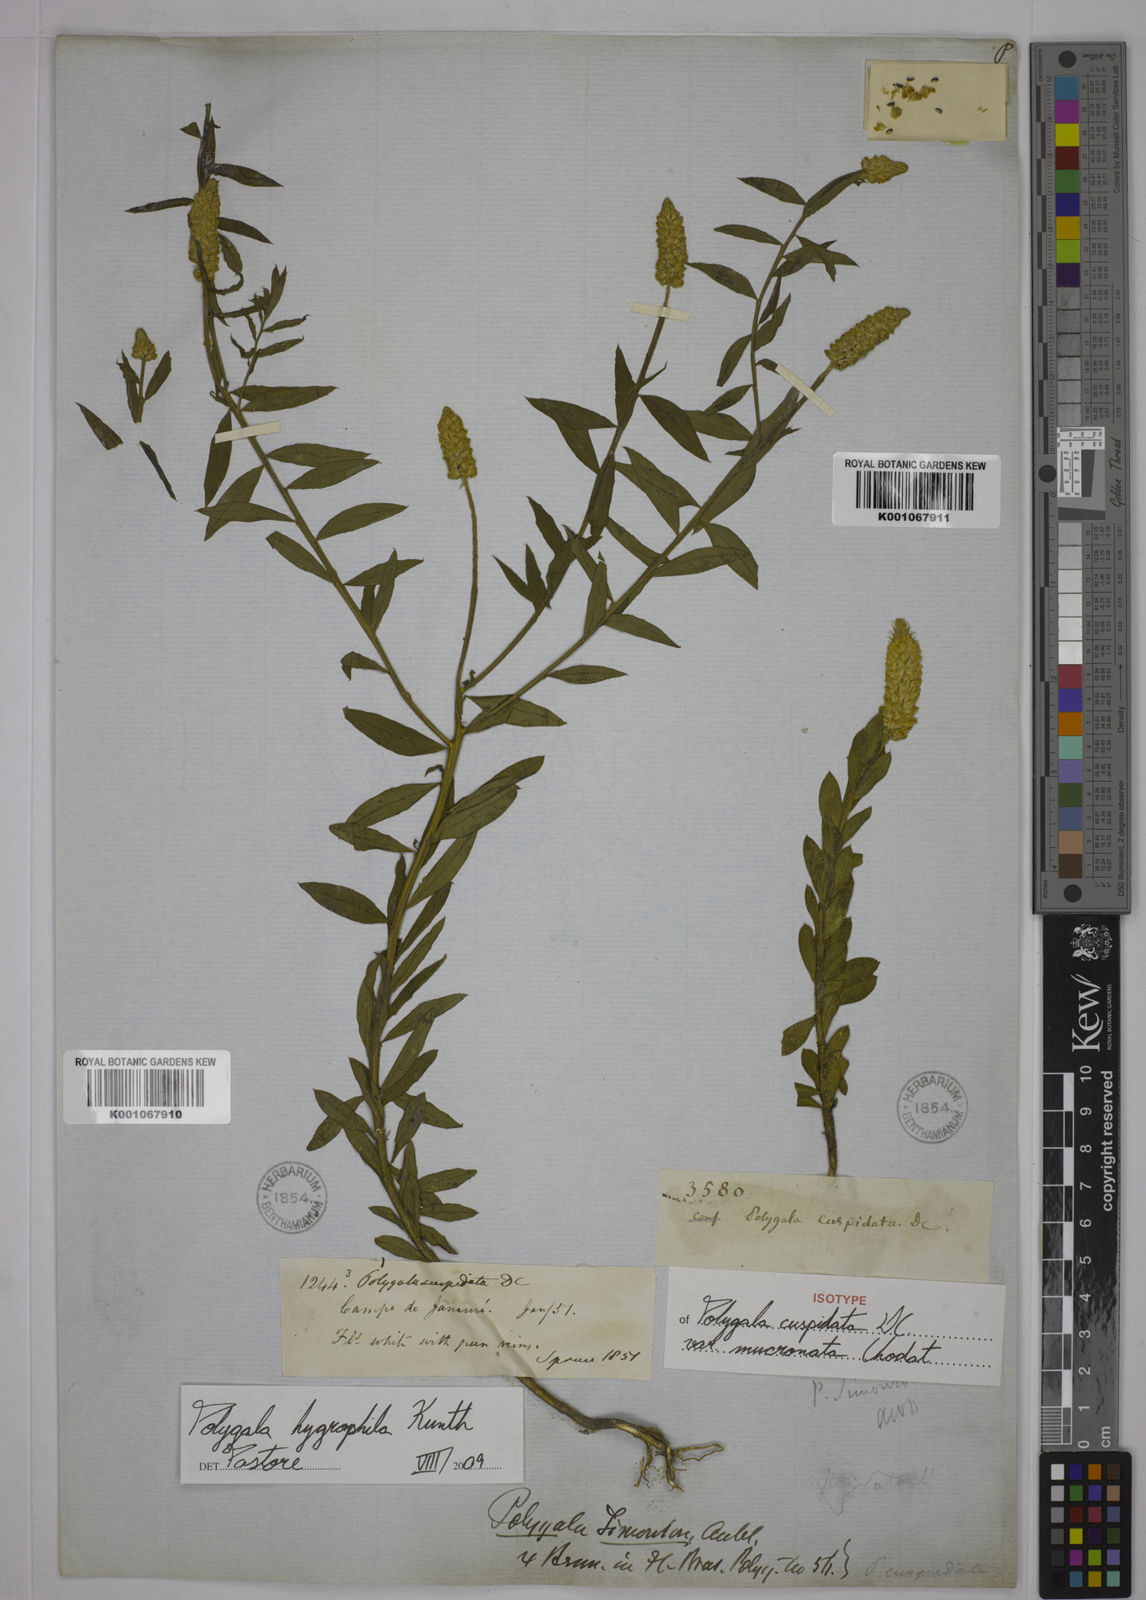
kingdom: Plantae
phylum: Tracheophyta
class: Magnoliopsida
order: Fabales
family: Polygalaceae
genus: Polygala
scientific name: Polygala hygrophila
